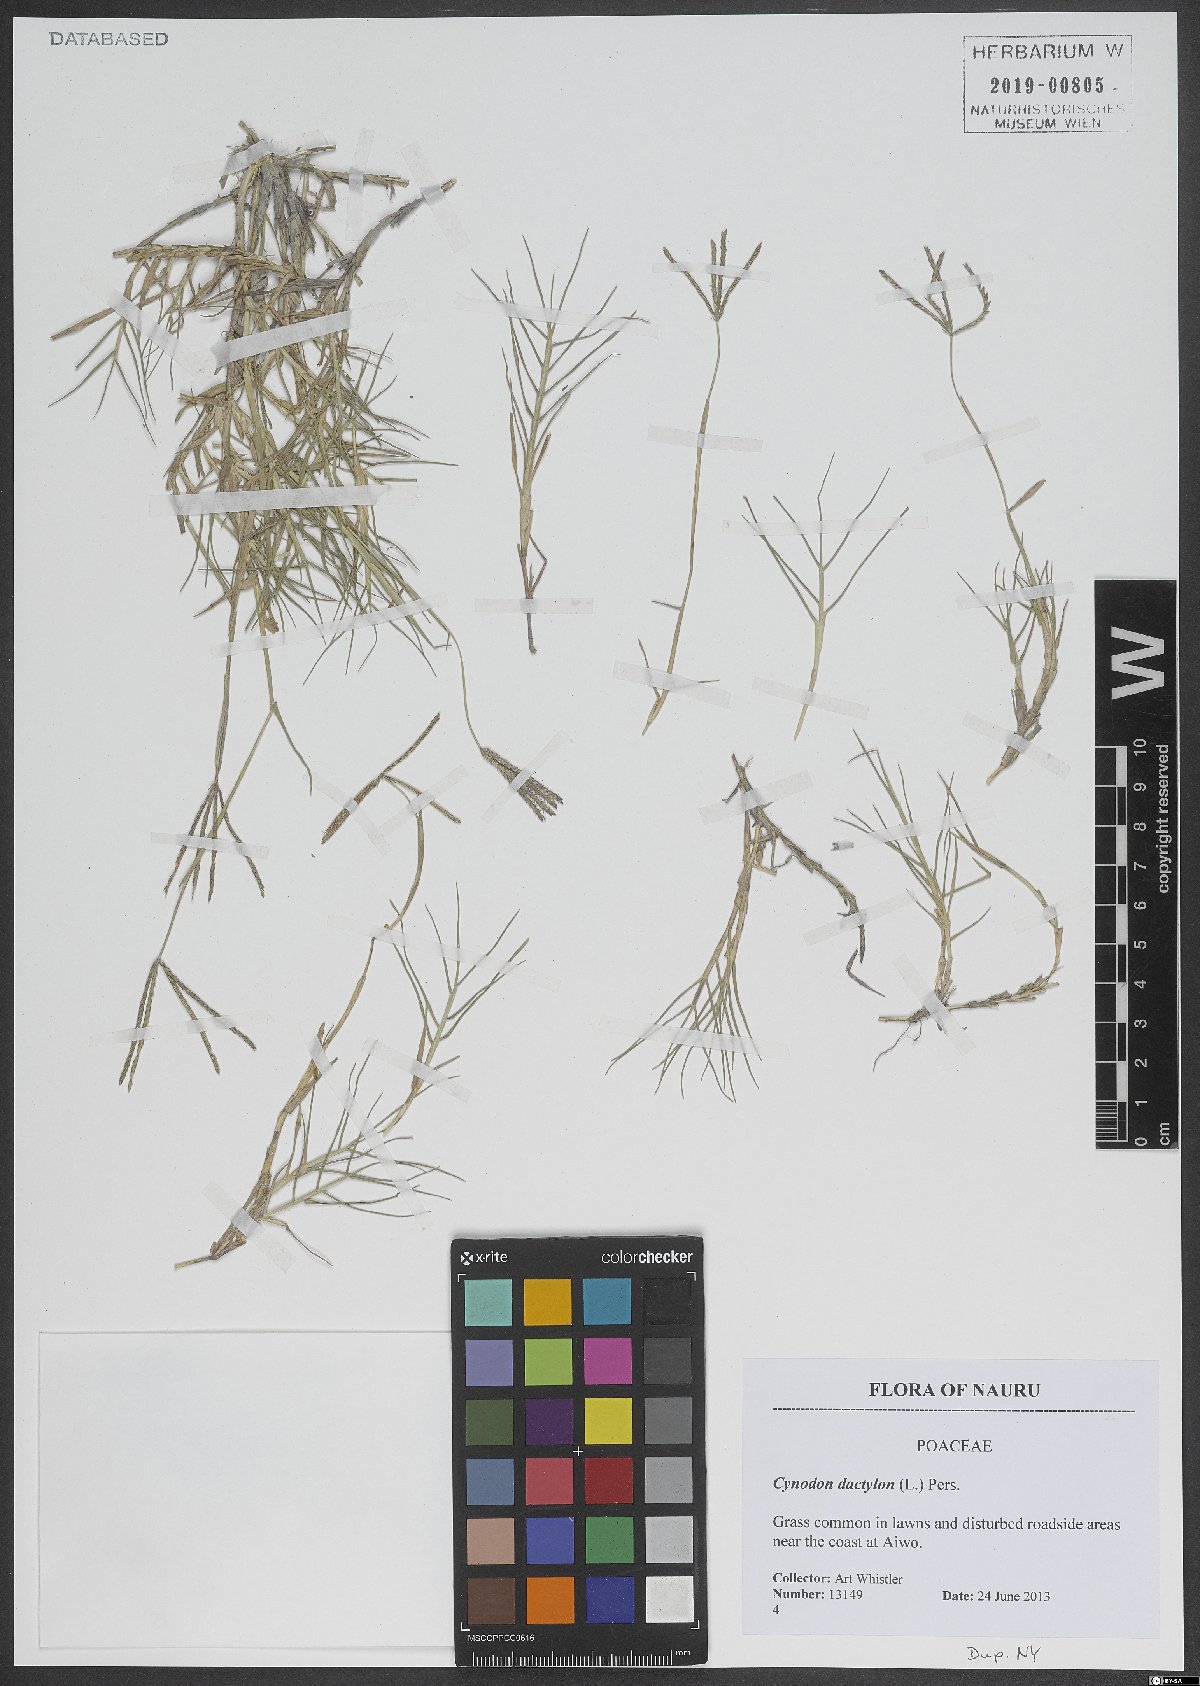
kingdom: Plantae
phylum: Tracheophyta
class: Liliopsida
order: Poales
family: Poaceae
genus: Cynodon
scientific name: Cynodon dactylon
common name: Bermuda grass
